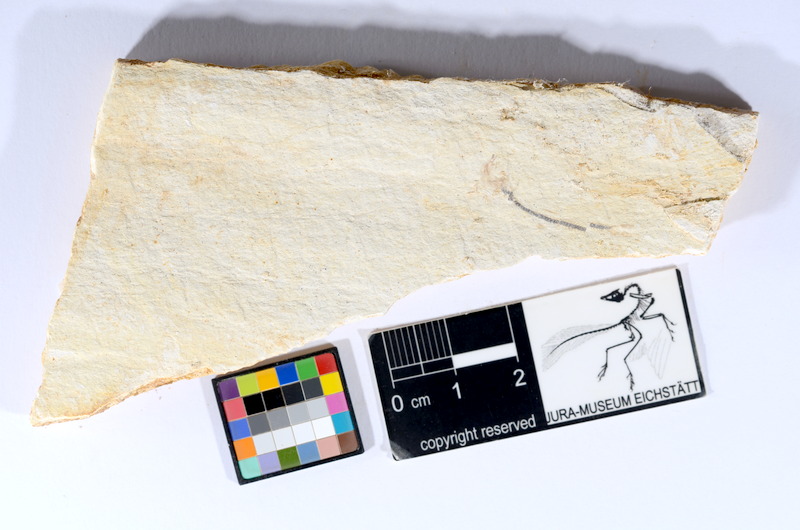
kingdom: Animalia
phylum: Chordata
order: Salmoniformes
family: Orthogonikleithridae
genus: Orthogonikleithrus
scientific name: Orthogonikleithrus hoelli
